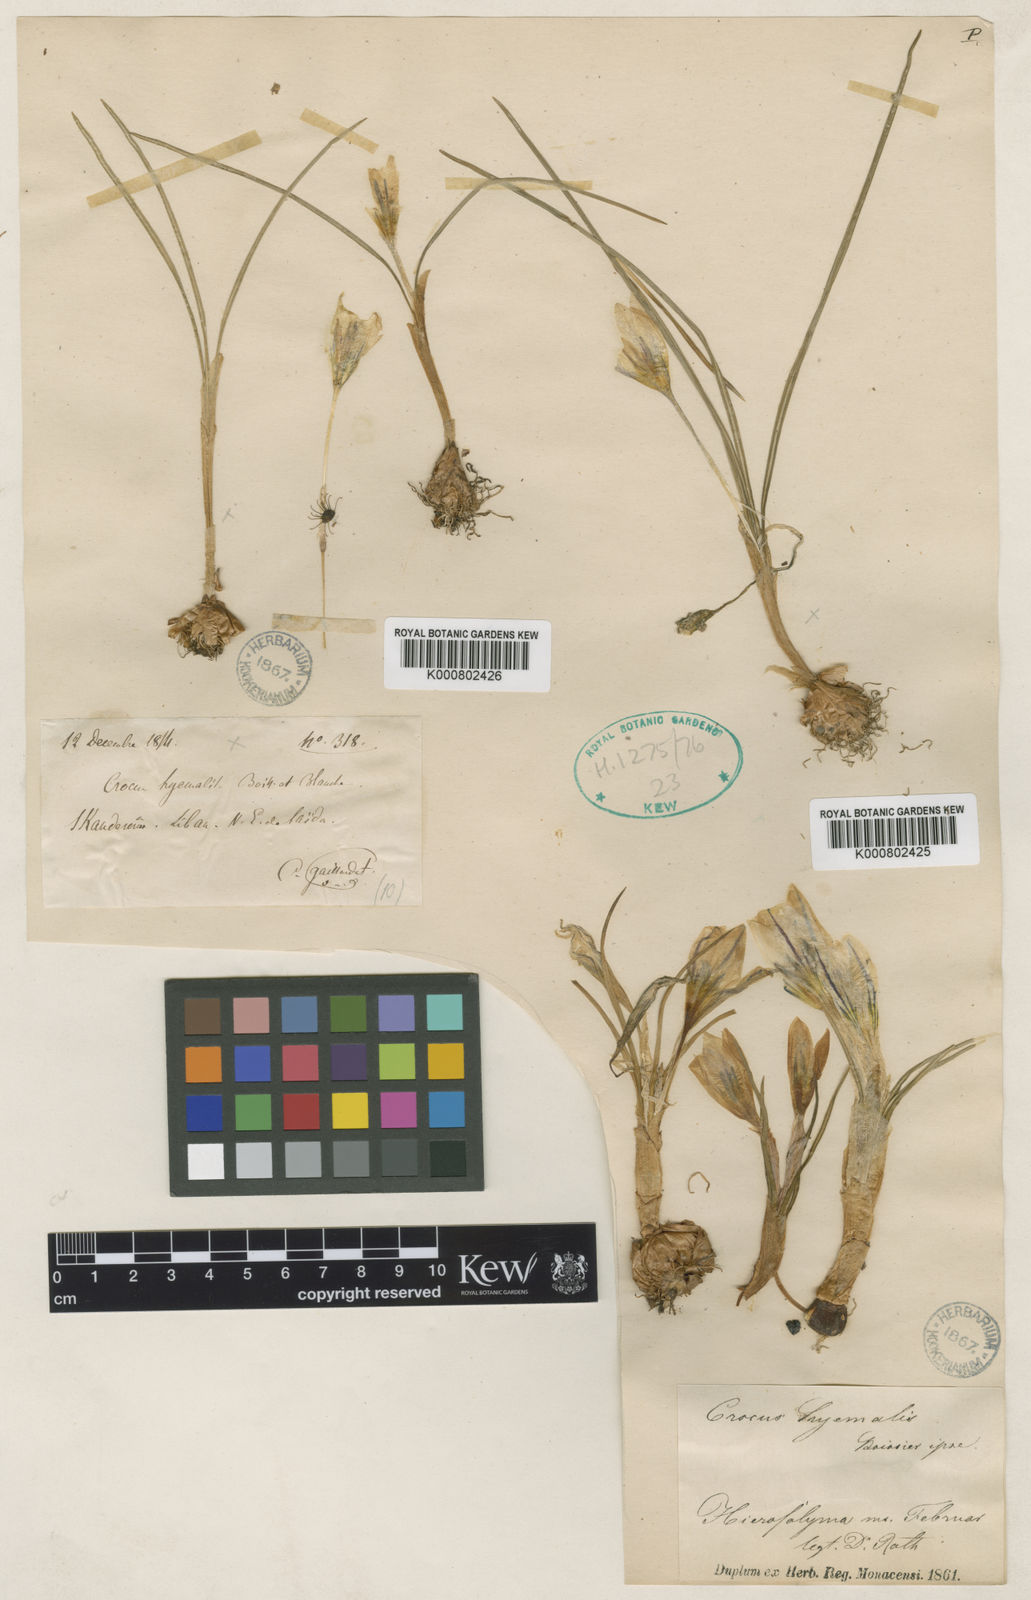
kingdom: Plantae
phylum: Tracheophyta
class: Liliopsida
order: Asparagales
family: Iridaceae
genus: Crocus
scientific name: Crocus hyemalis
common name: Winter crocus
